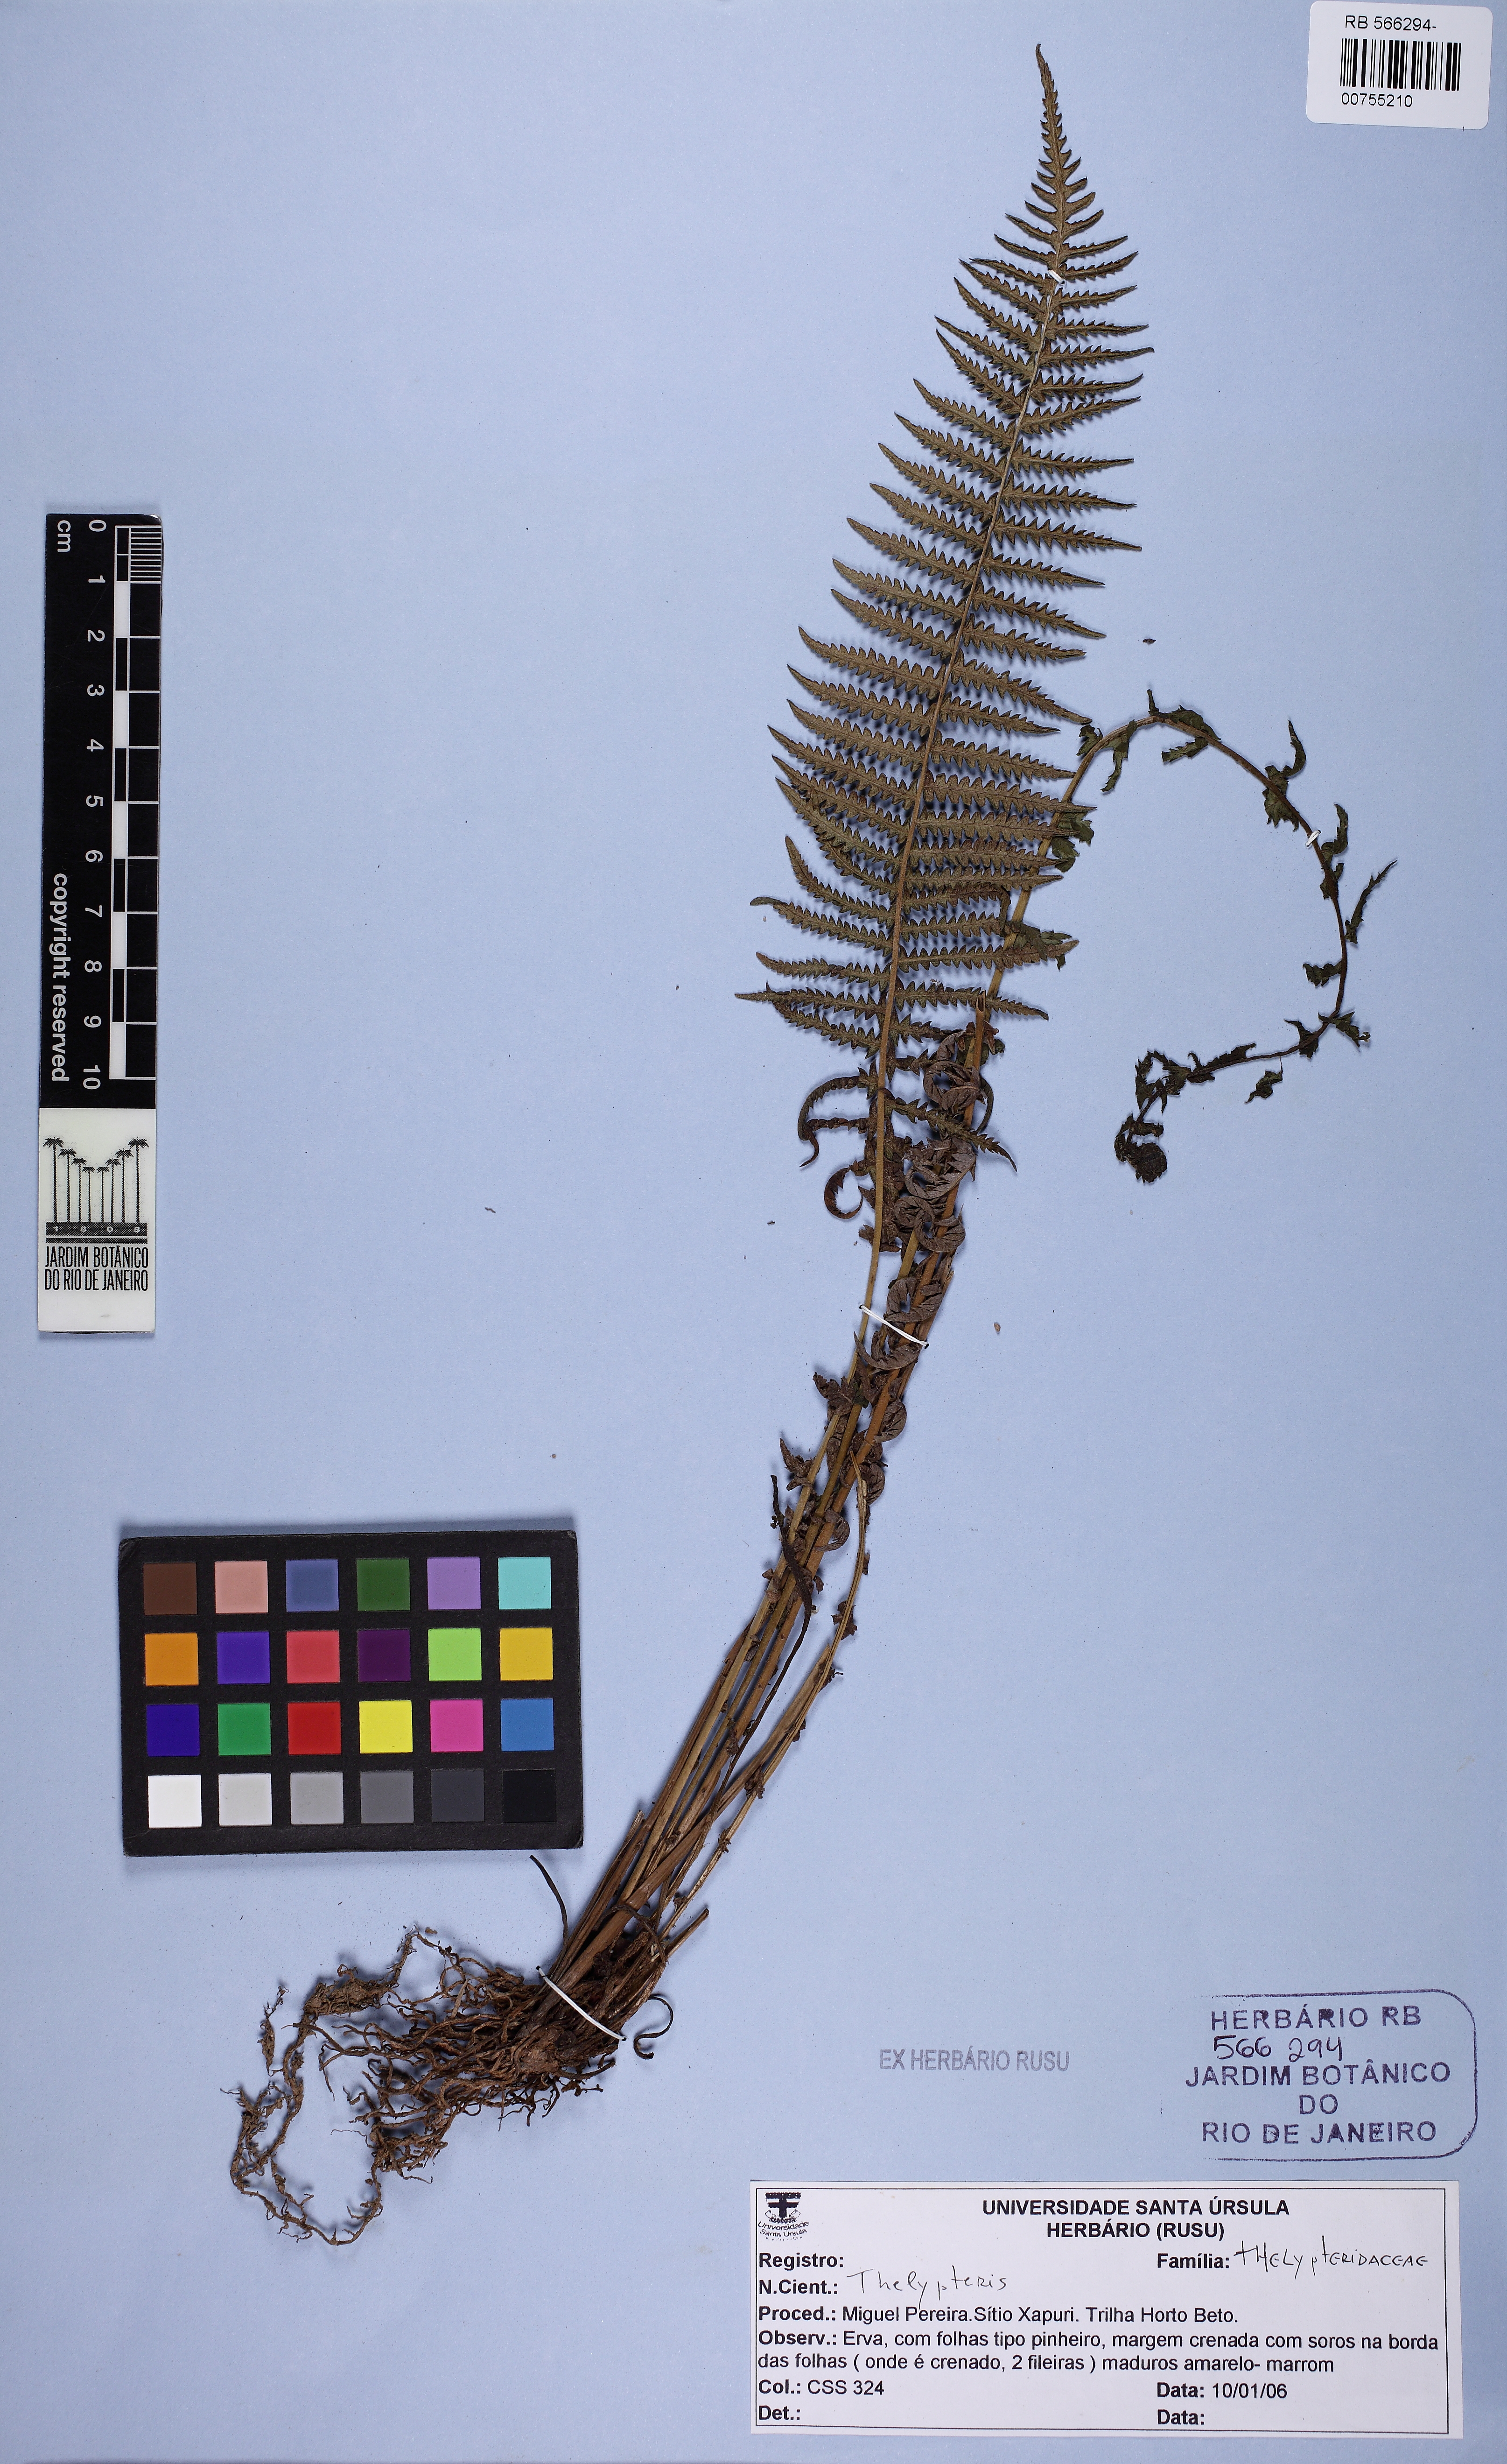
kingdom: Plantae
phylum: Tracheophyta
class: Polypodiopsida
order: Polypodiales
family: Thelypteridaceae
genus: Amauropelta
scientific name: Amauropelta opposita
